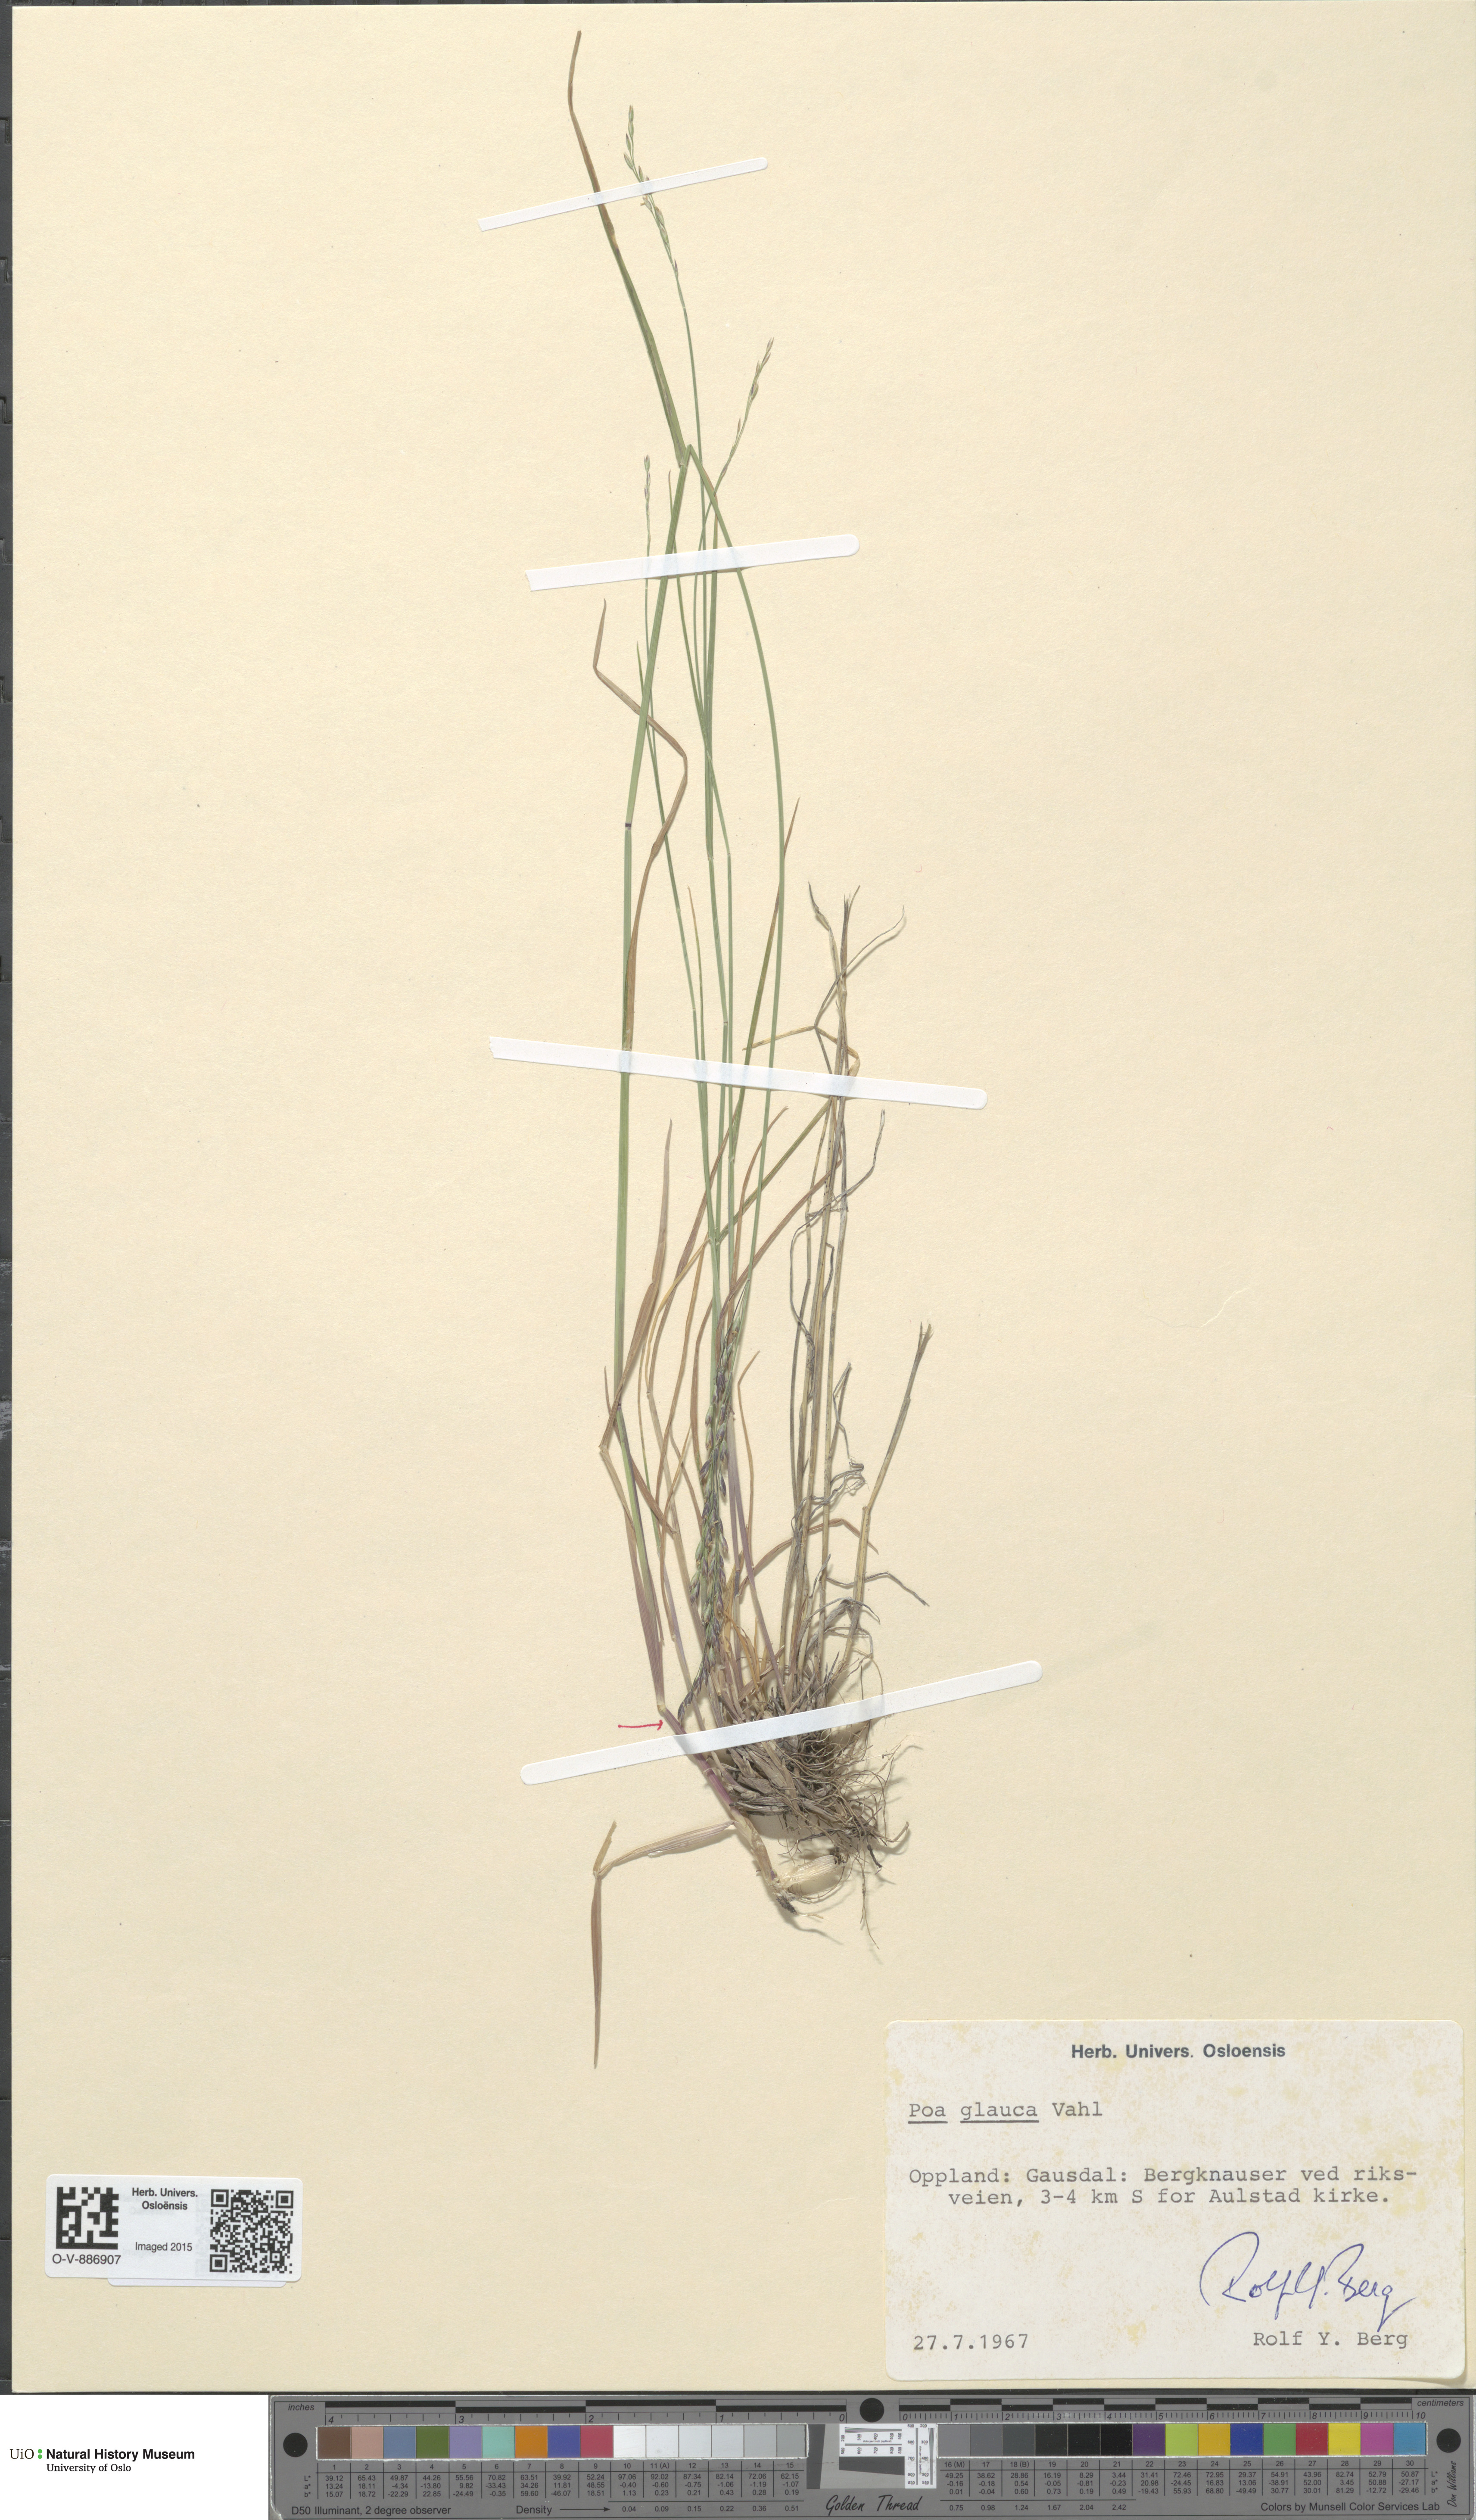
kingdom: Plantae
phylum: Tracheophyta
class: Liliopsida
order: Poales
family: Poaceae
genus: Poa
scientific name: Poa glauca
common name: Glaucous bluegrass
